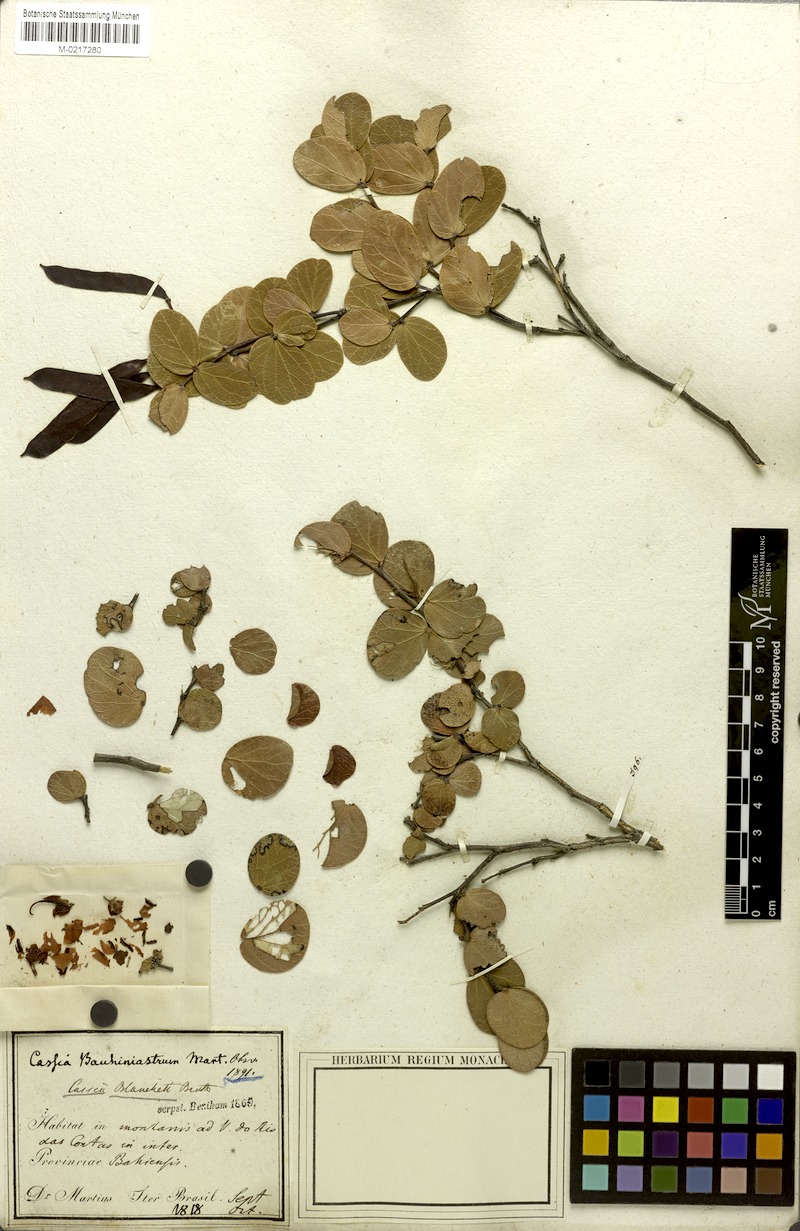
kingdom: Plantae
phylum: Tracheophyta
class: Magnoliopsida
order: Fabales
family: Fabaceae
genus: Chamaecrista
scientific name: Chamaecrista blanchetii
